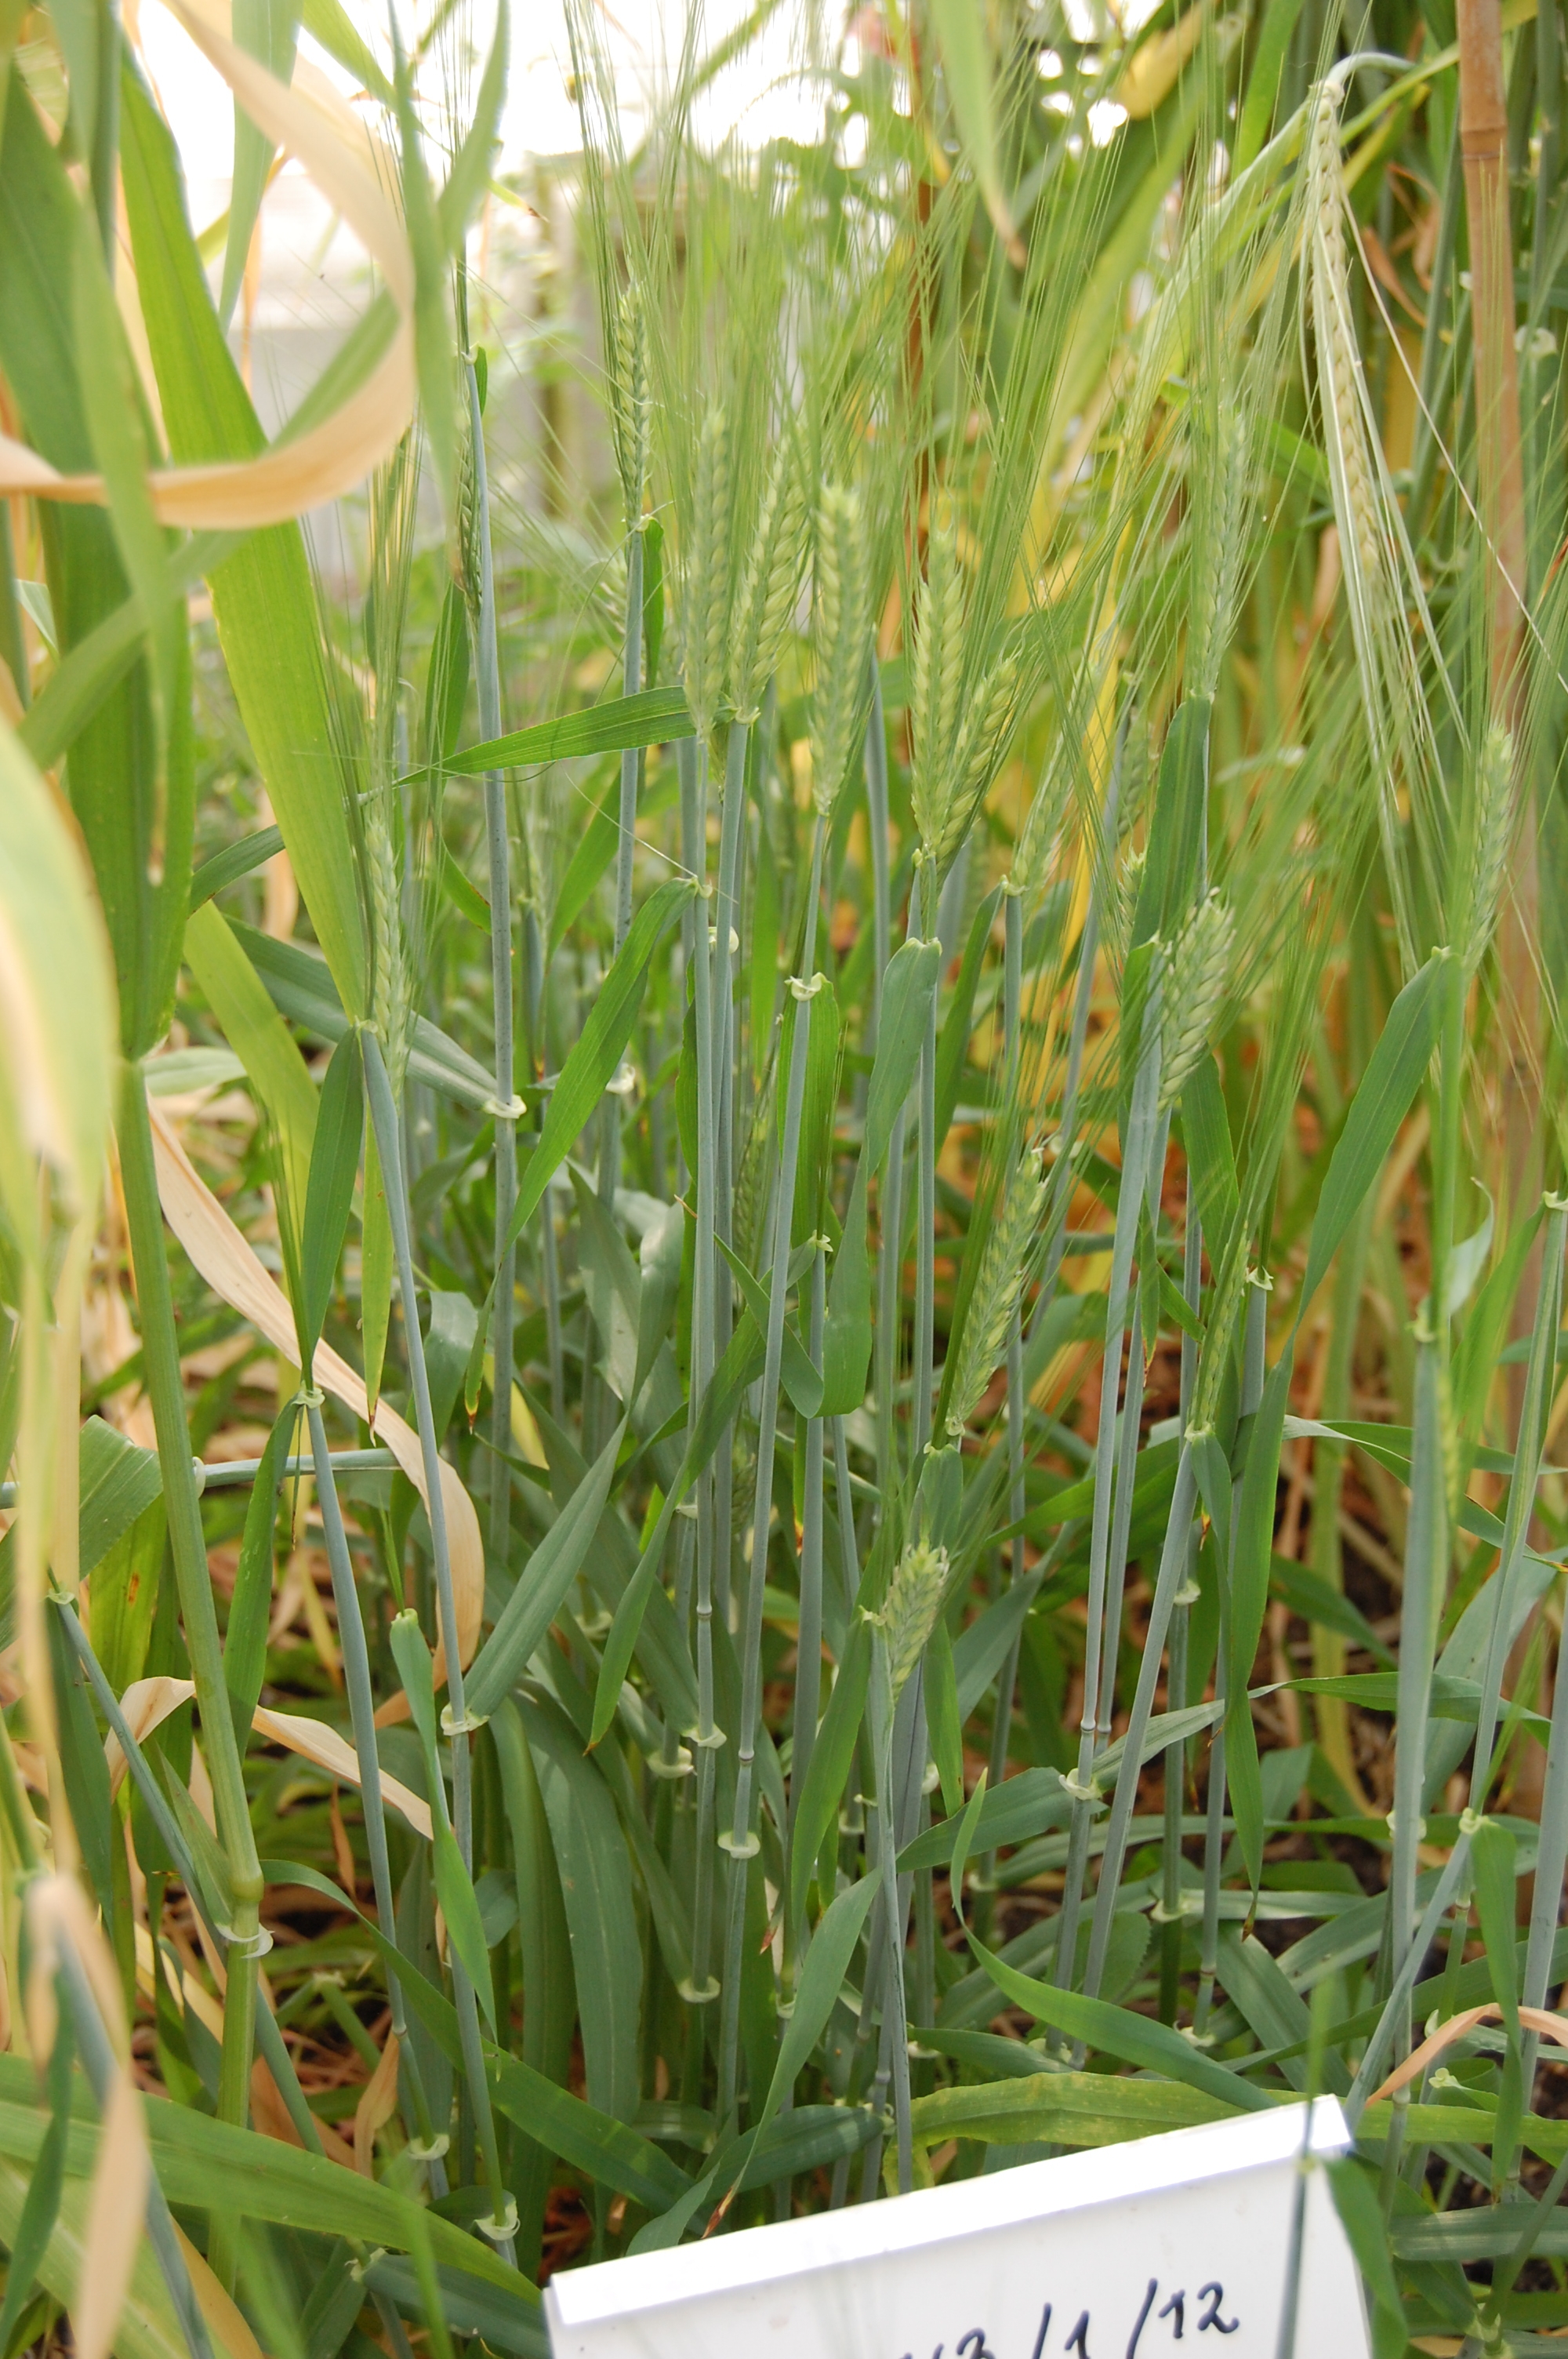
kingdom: Plantae
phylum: Tracheophyta
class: Liliopsida
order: Poales
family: Poaceae
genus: Hordeum
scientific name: Hordeum vulgare
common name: Common barley
